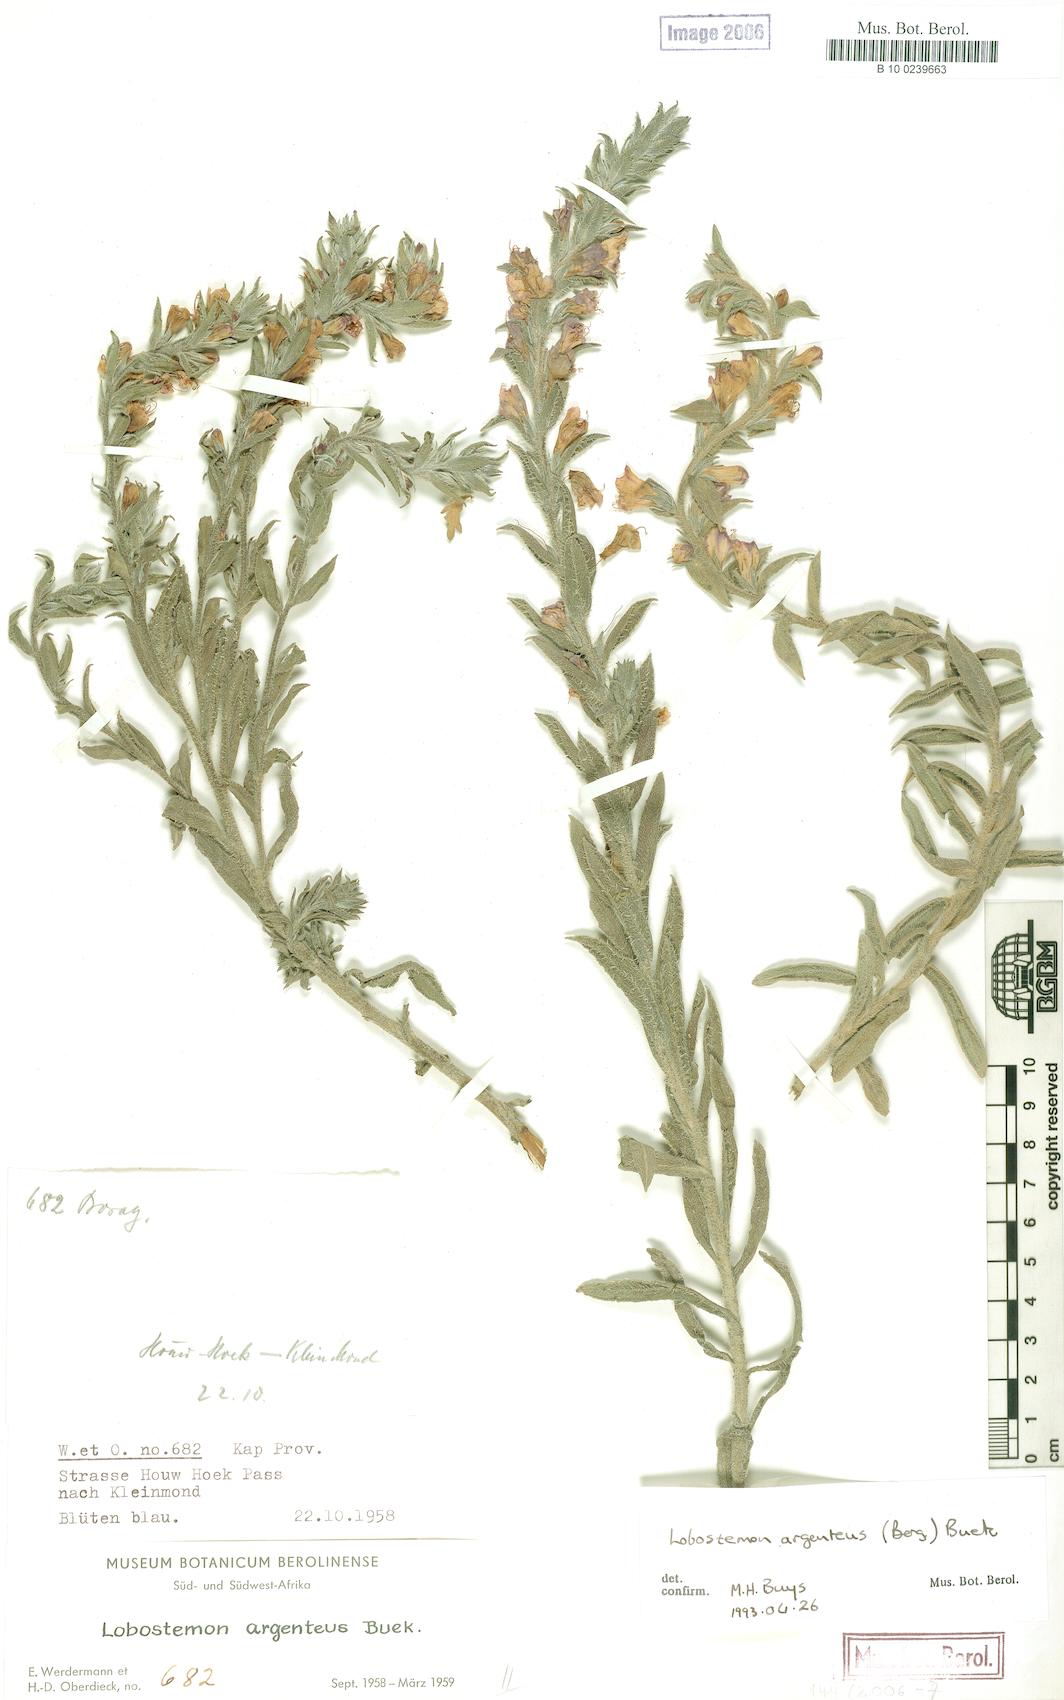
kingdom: Plantae
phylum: Tracheophyta
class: Magnoliopsida
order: Boraginales
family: Boraginaceae
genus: Lobostemon
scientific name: Lobostemon argenteus
